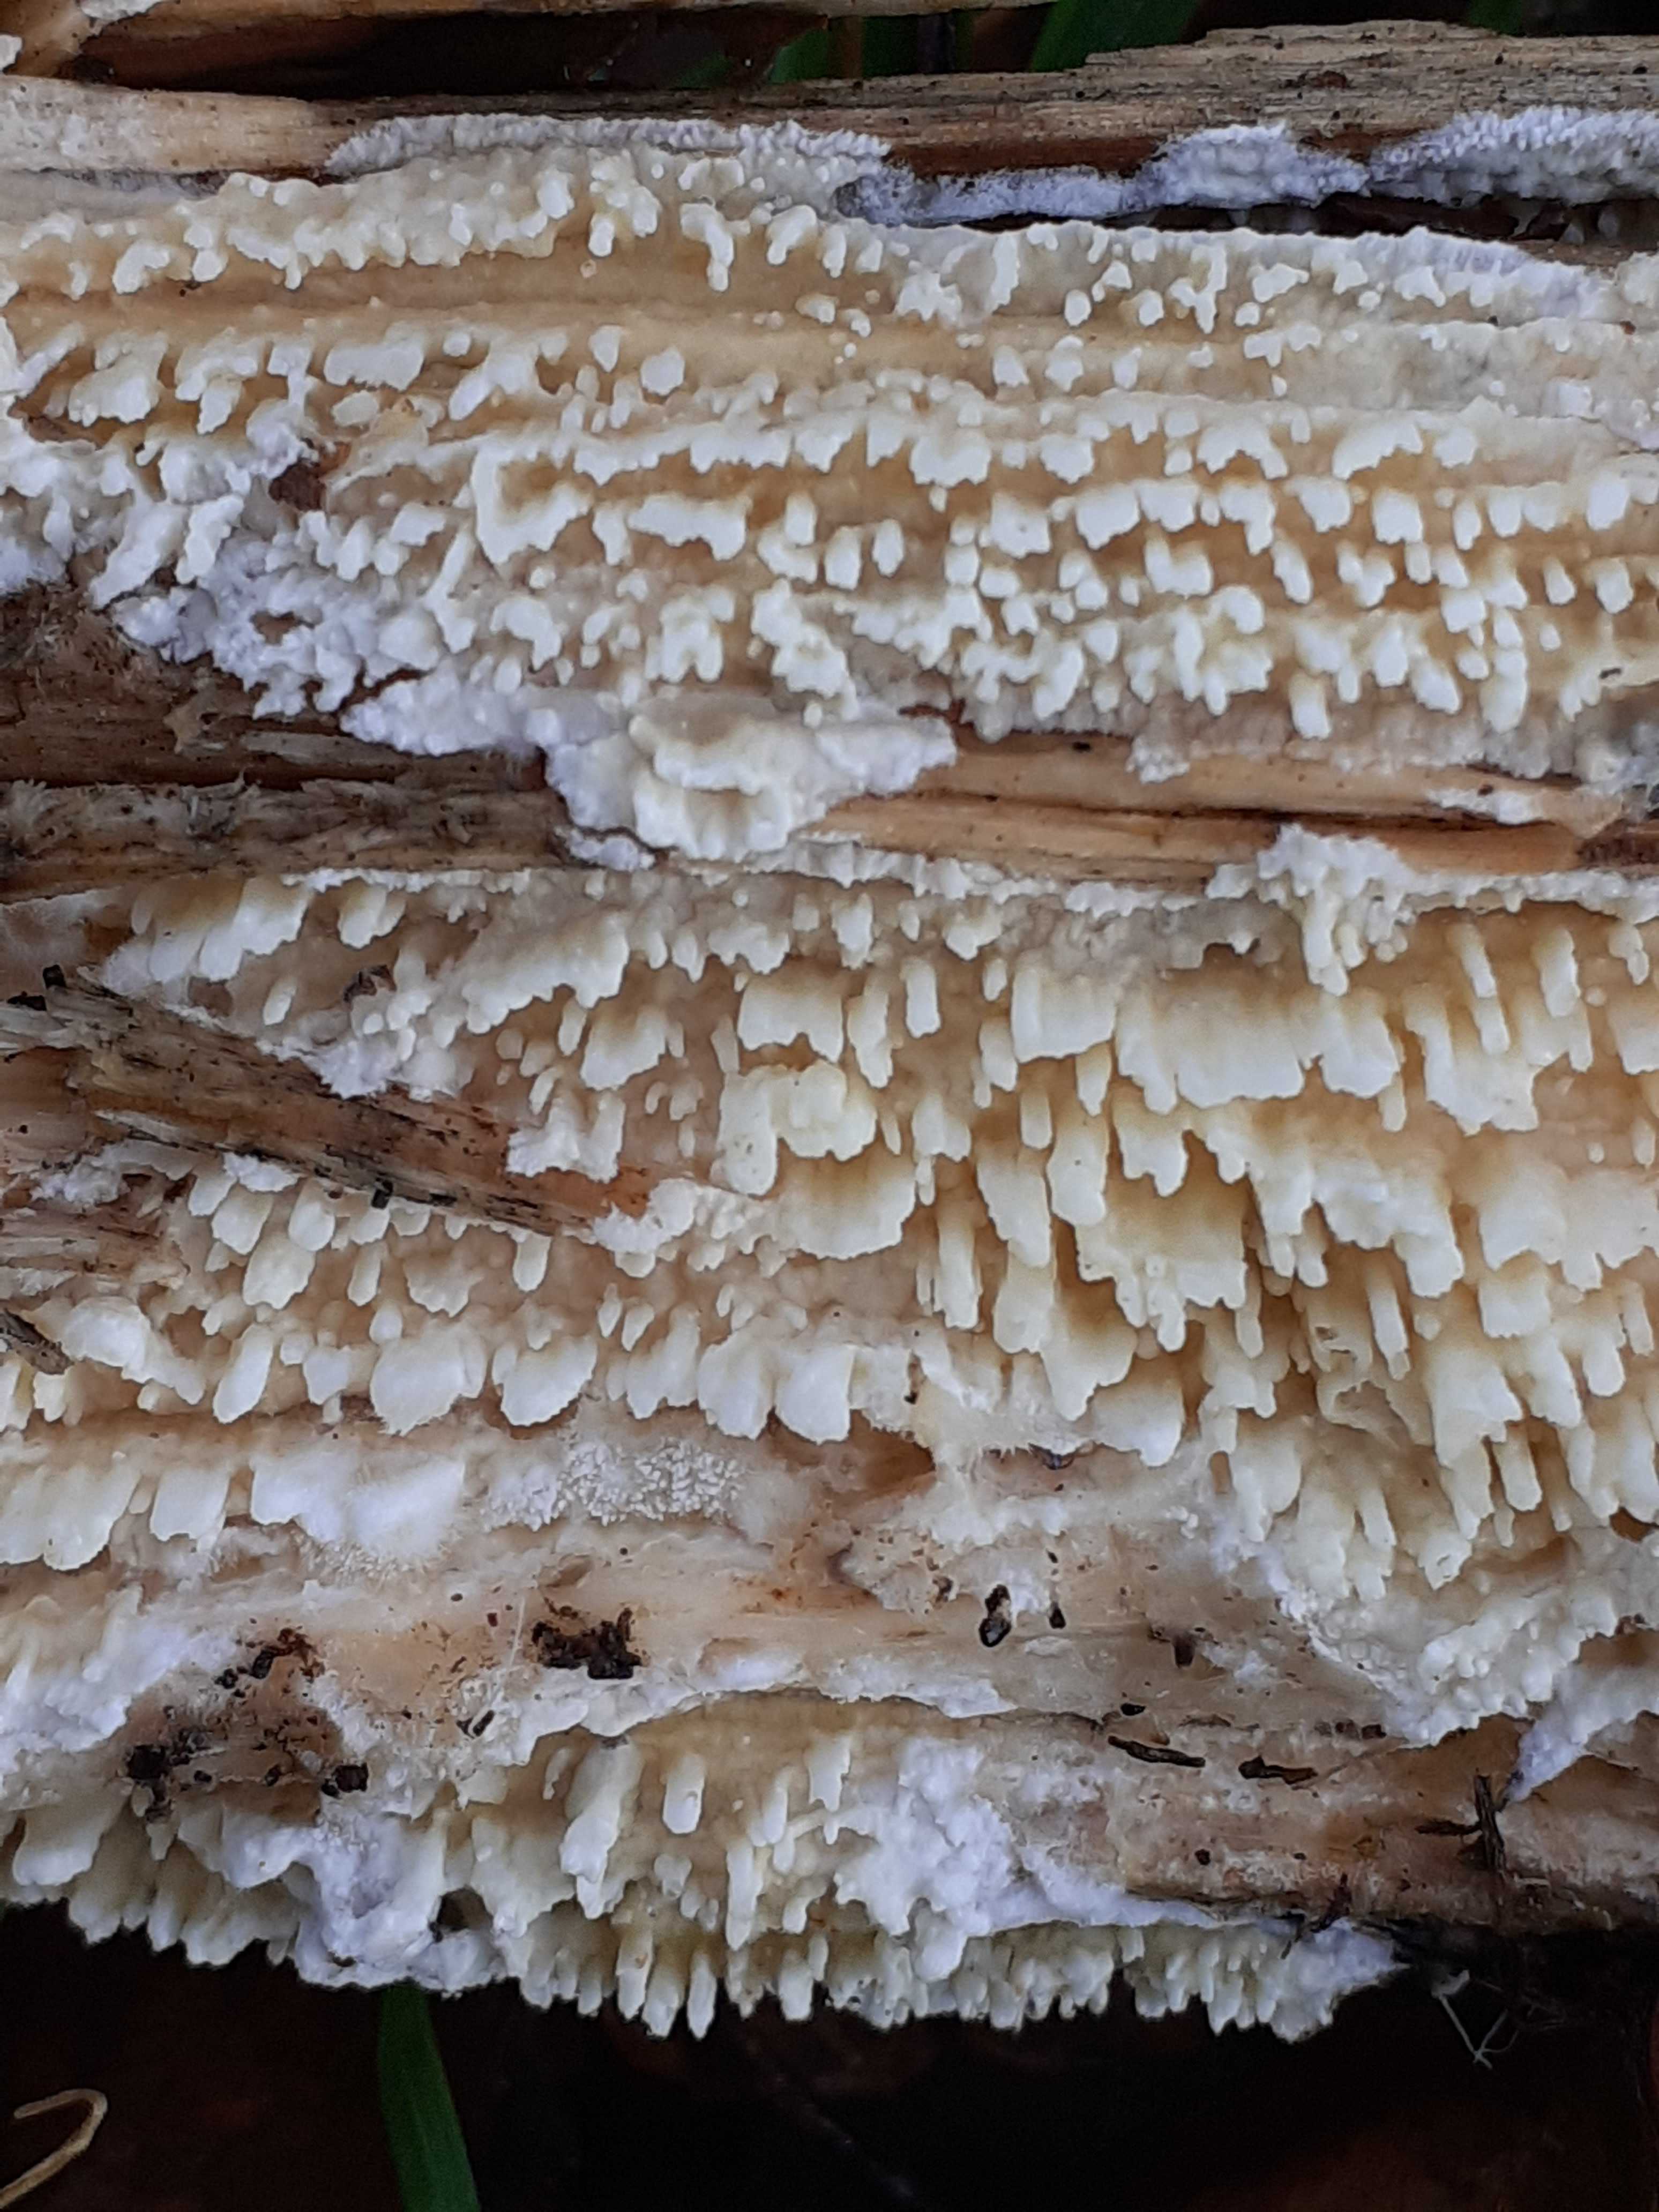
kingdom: Fungi
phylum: Basidiomycota
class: Agaricomycetes
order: Hymenochaetales
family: Schizoporaceae
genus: Xylodon
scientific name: Xylodon radula
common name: grovtandet kalkskind
